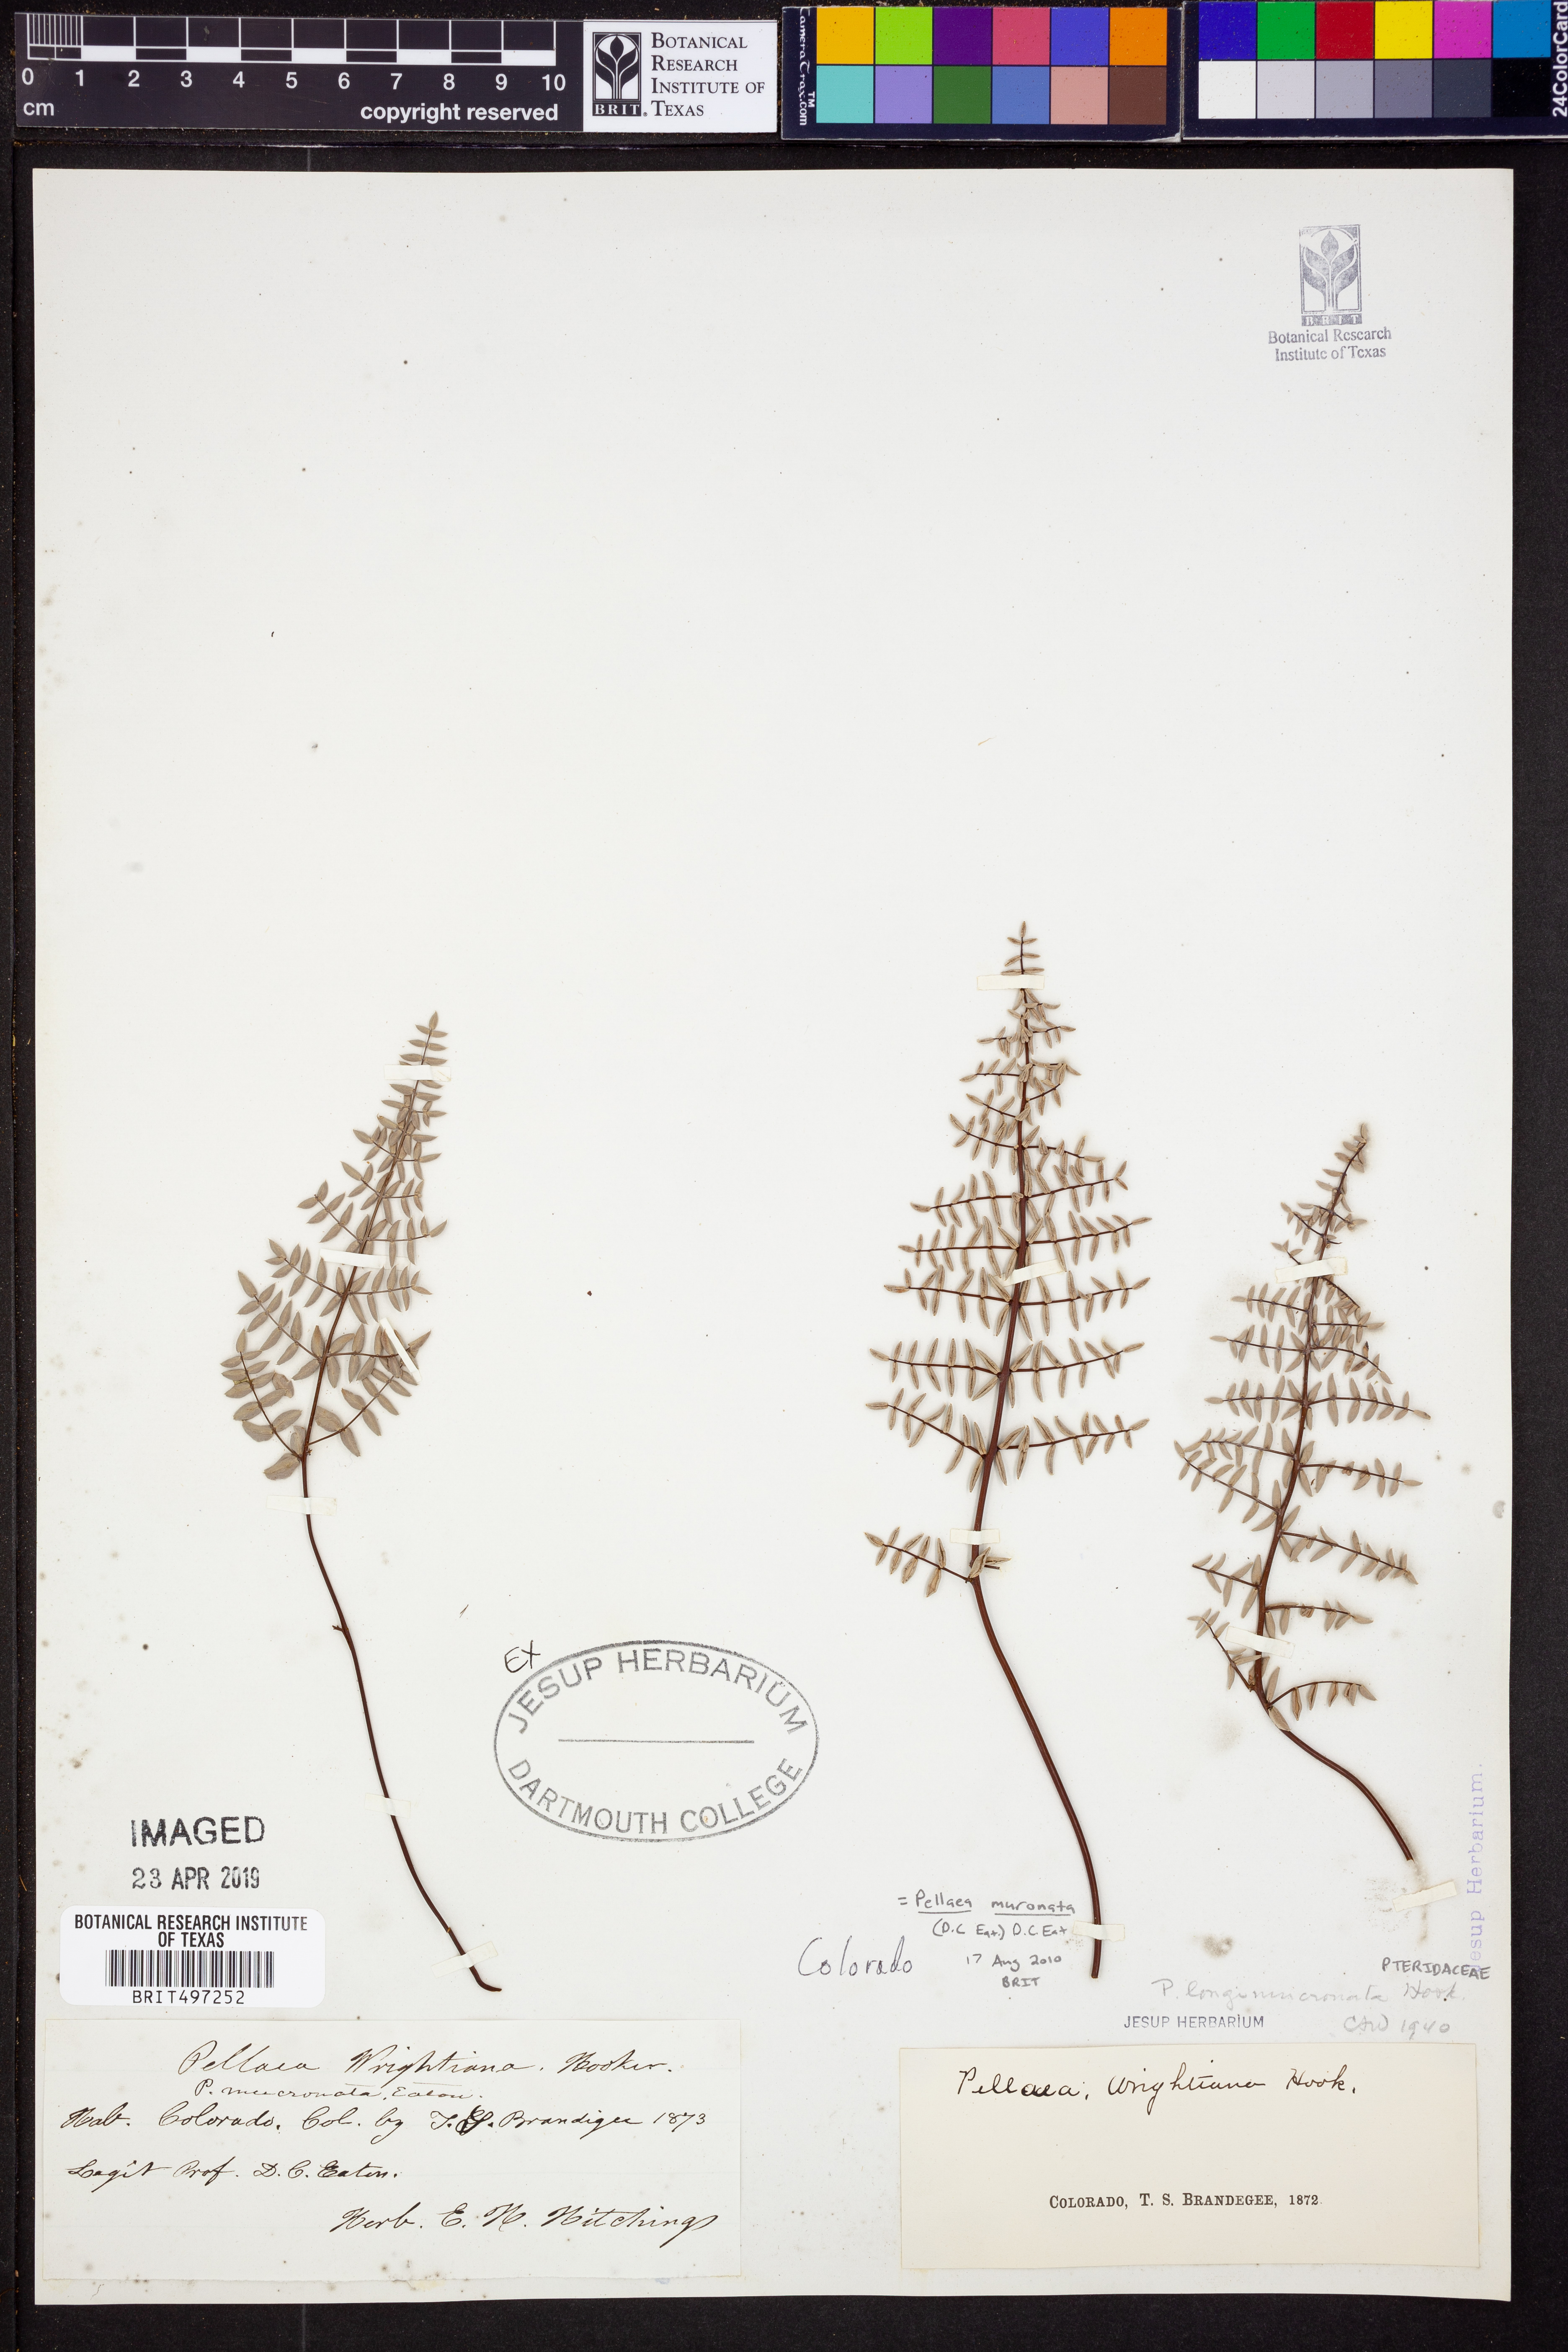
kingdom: Plantae
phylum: Tracheophyta
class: Polypodiopsida
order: Polypodiales
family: Pteridaceae
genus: Pellaea
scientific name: Pellaea atropurpurea
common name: Hairy cliffbrake
